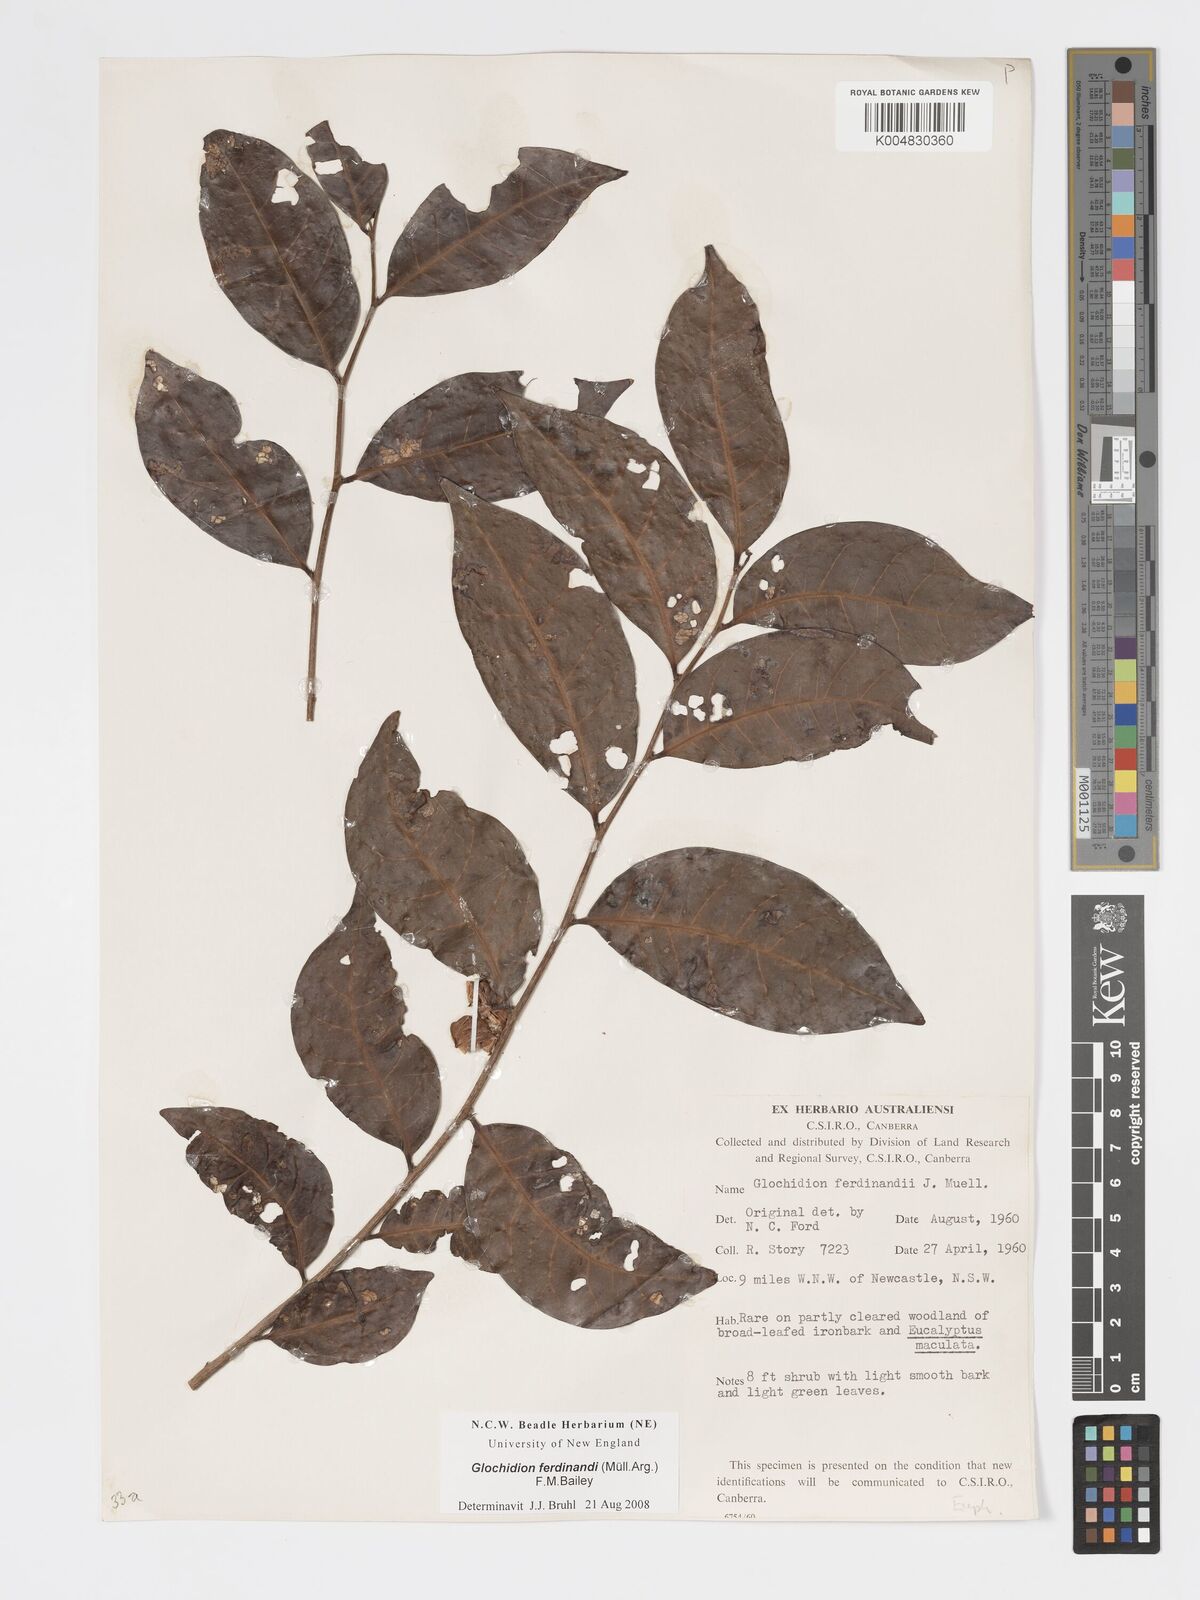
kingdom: Plantae
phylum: Tracheophyta
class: Magnoliopsida
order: Malpighiales
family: Phyllanthaceae
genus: Glochidion
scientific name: Glochidion ferdinandi
